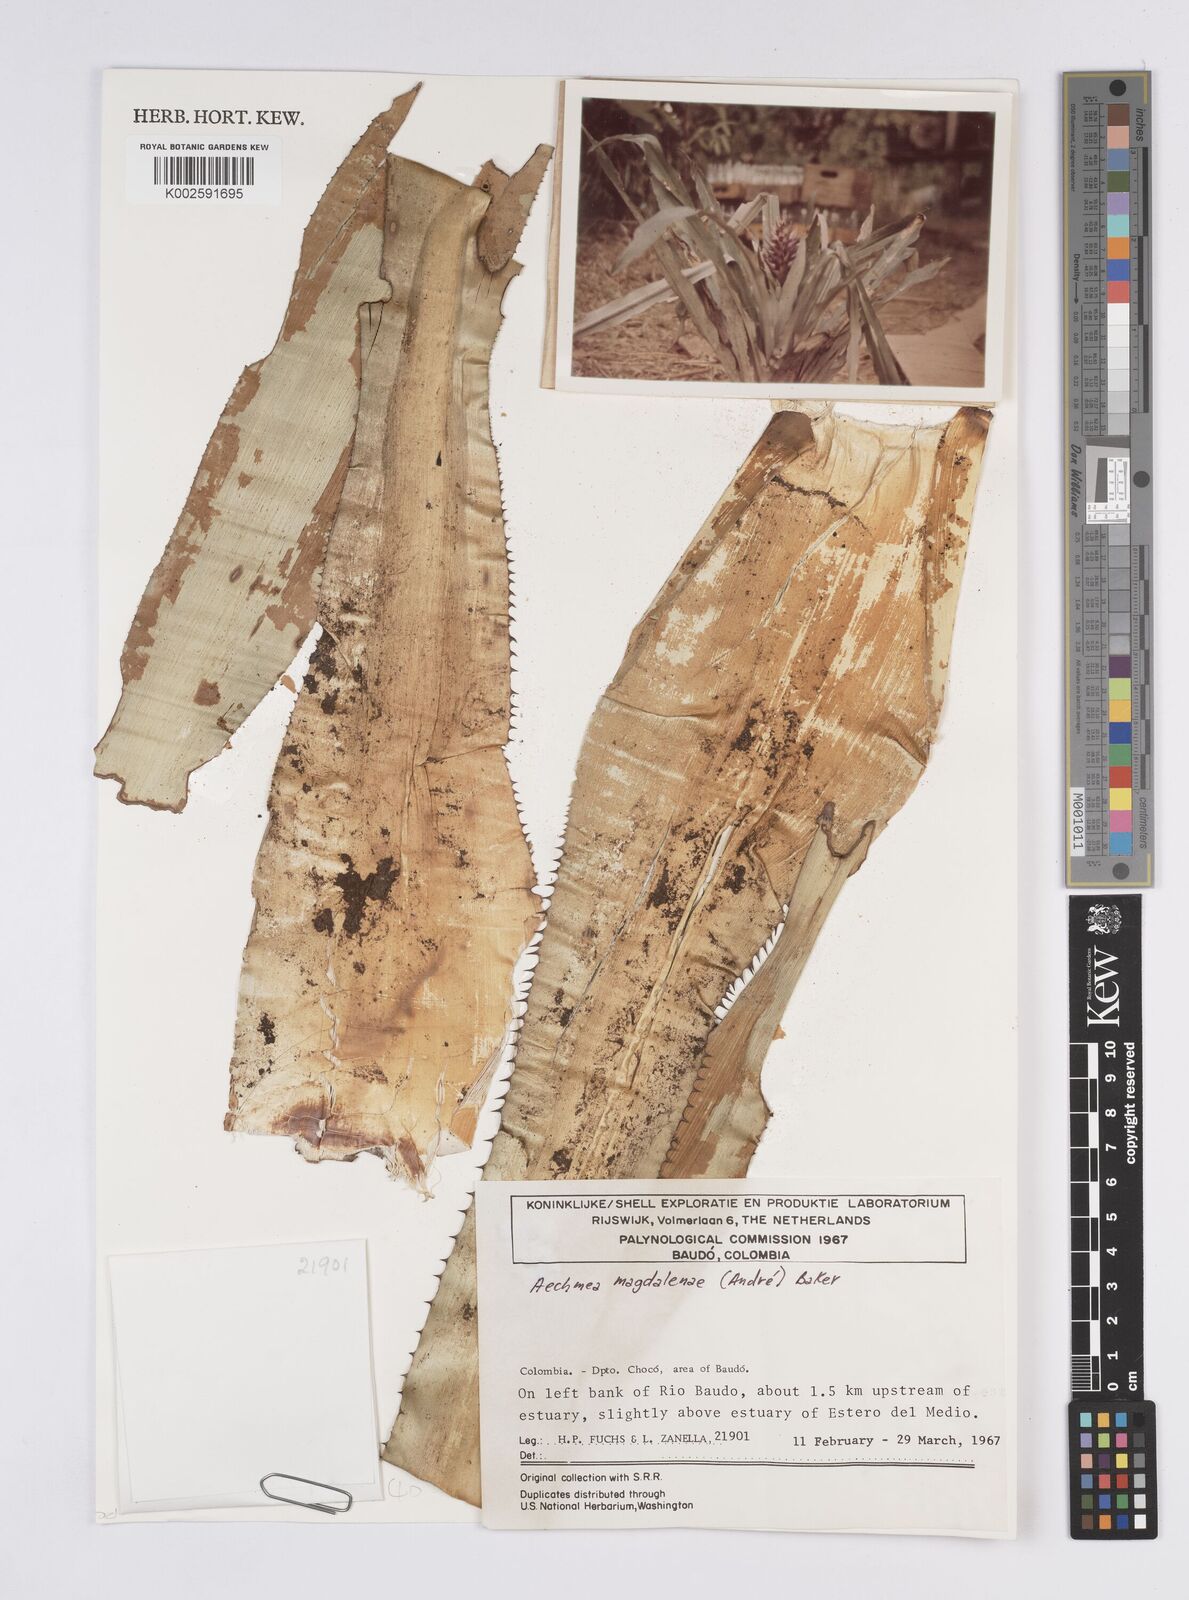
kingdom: Plantae
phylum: Tracheophyta
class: Liliopsida
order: Poales
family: Bromeliaceae
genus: Aechmea
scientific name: Aechmea magdalenae
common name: Arghan
